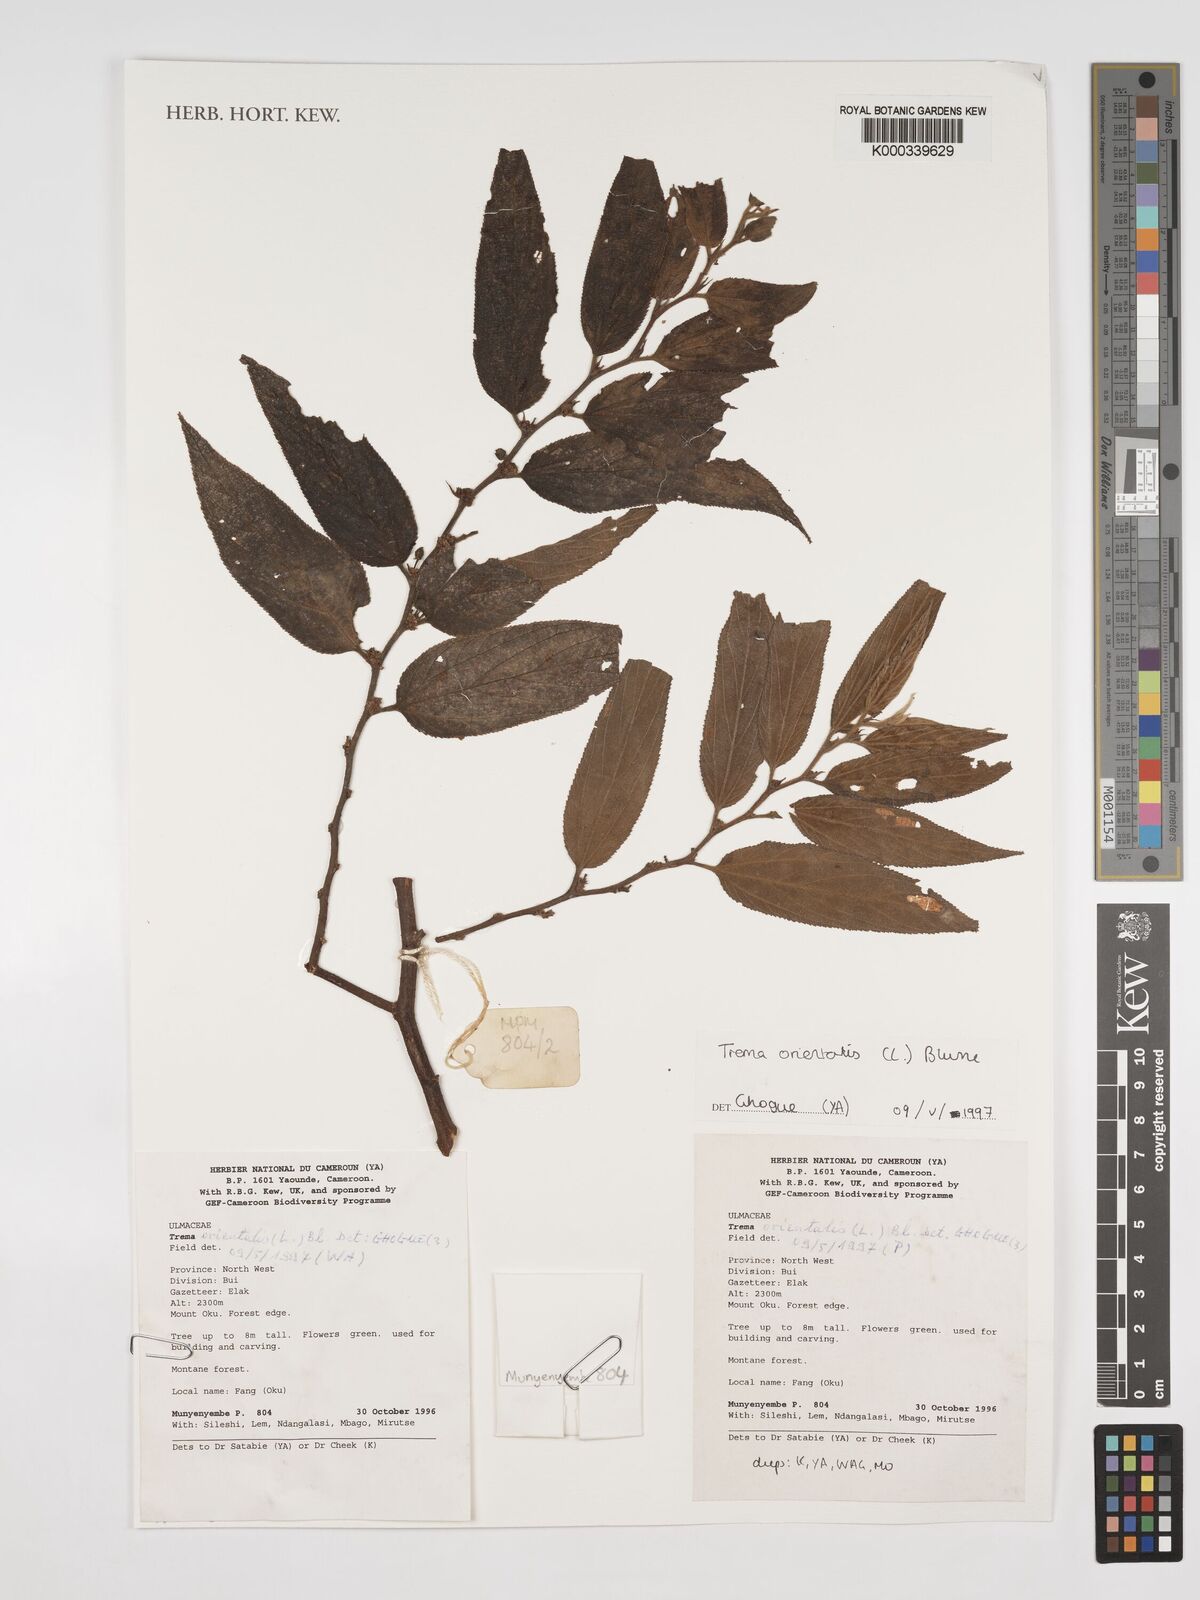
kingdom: Plantae
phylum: Tracheophyta
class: Magnoliopsida
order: Rosales
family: Cannabaceae
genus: Trema
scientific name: Trema
